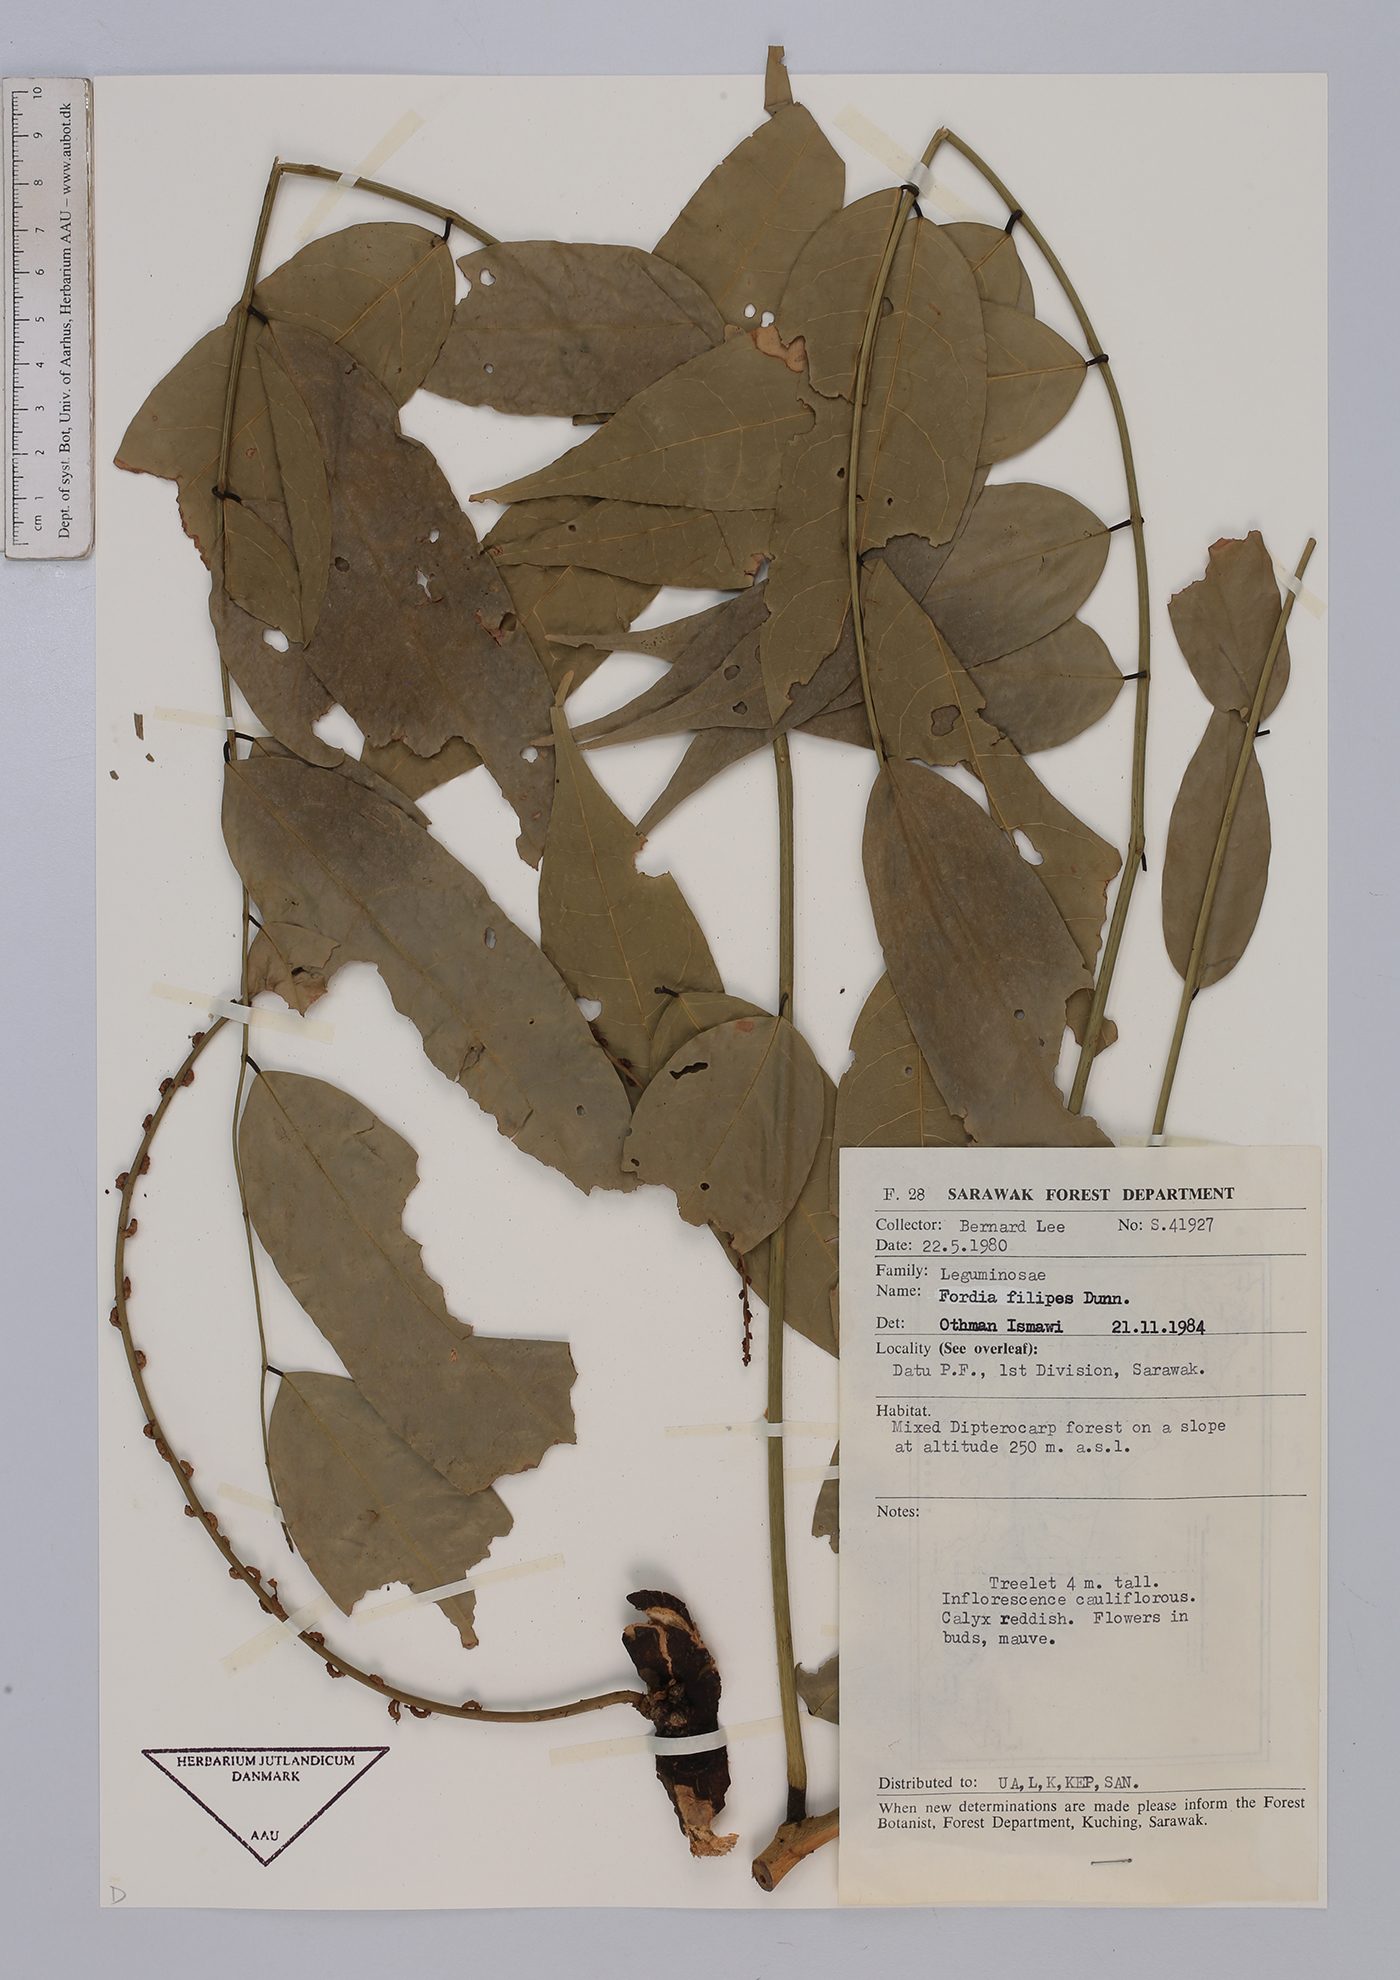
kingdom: Plantae
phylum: Tracheophyta
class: Magnoliopsida
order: Fabales
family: Fabaceae
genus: Fordia
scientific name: Fordia splendidissima
